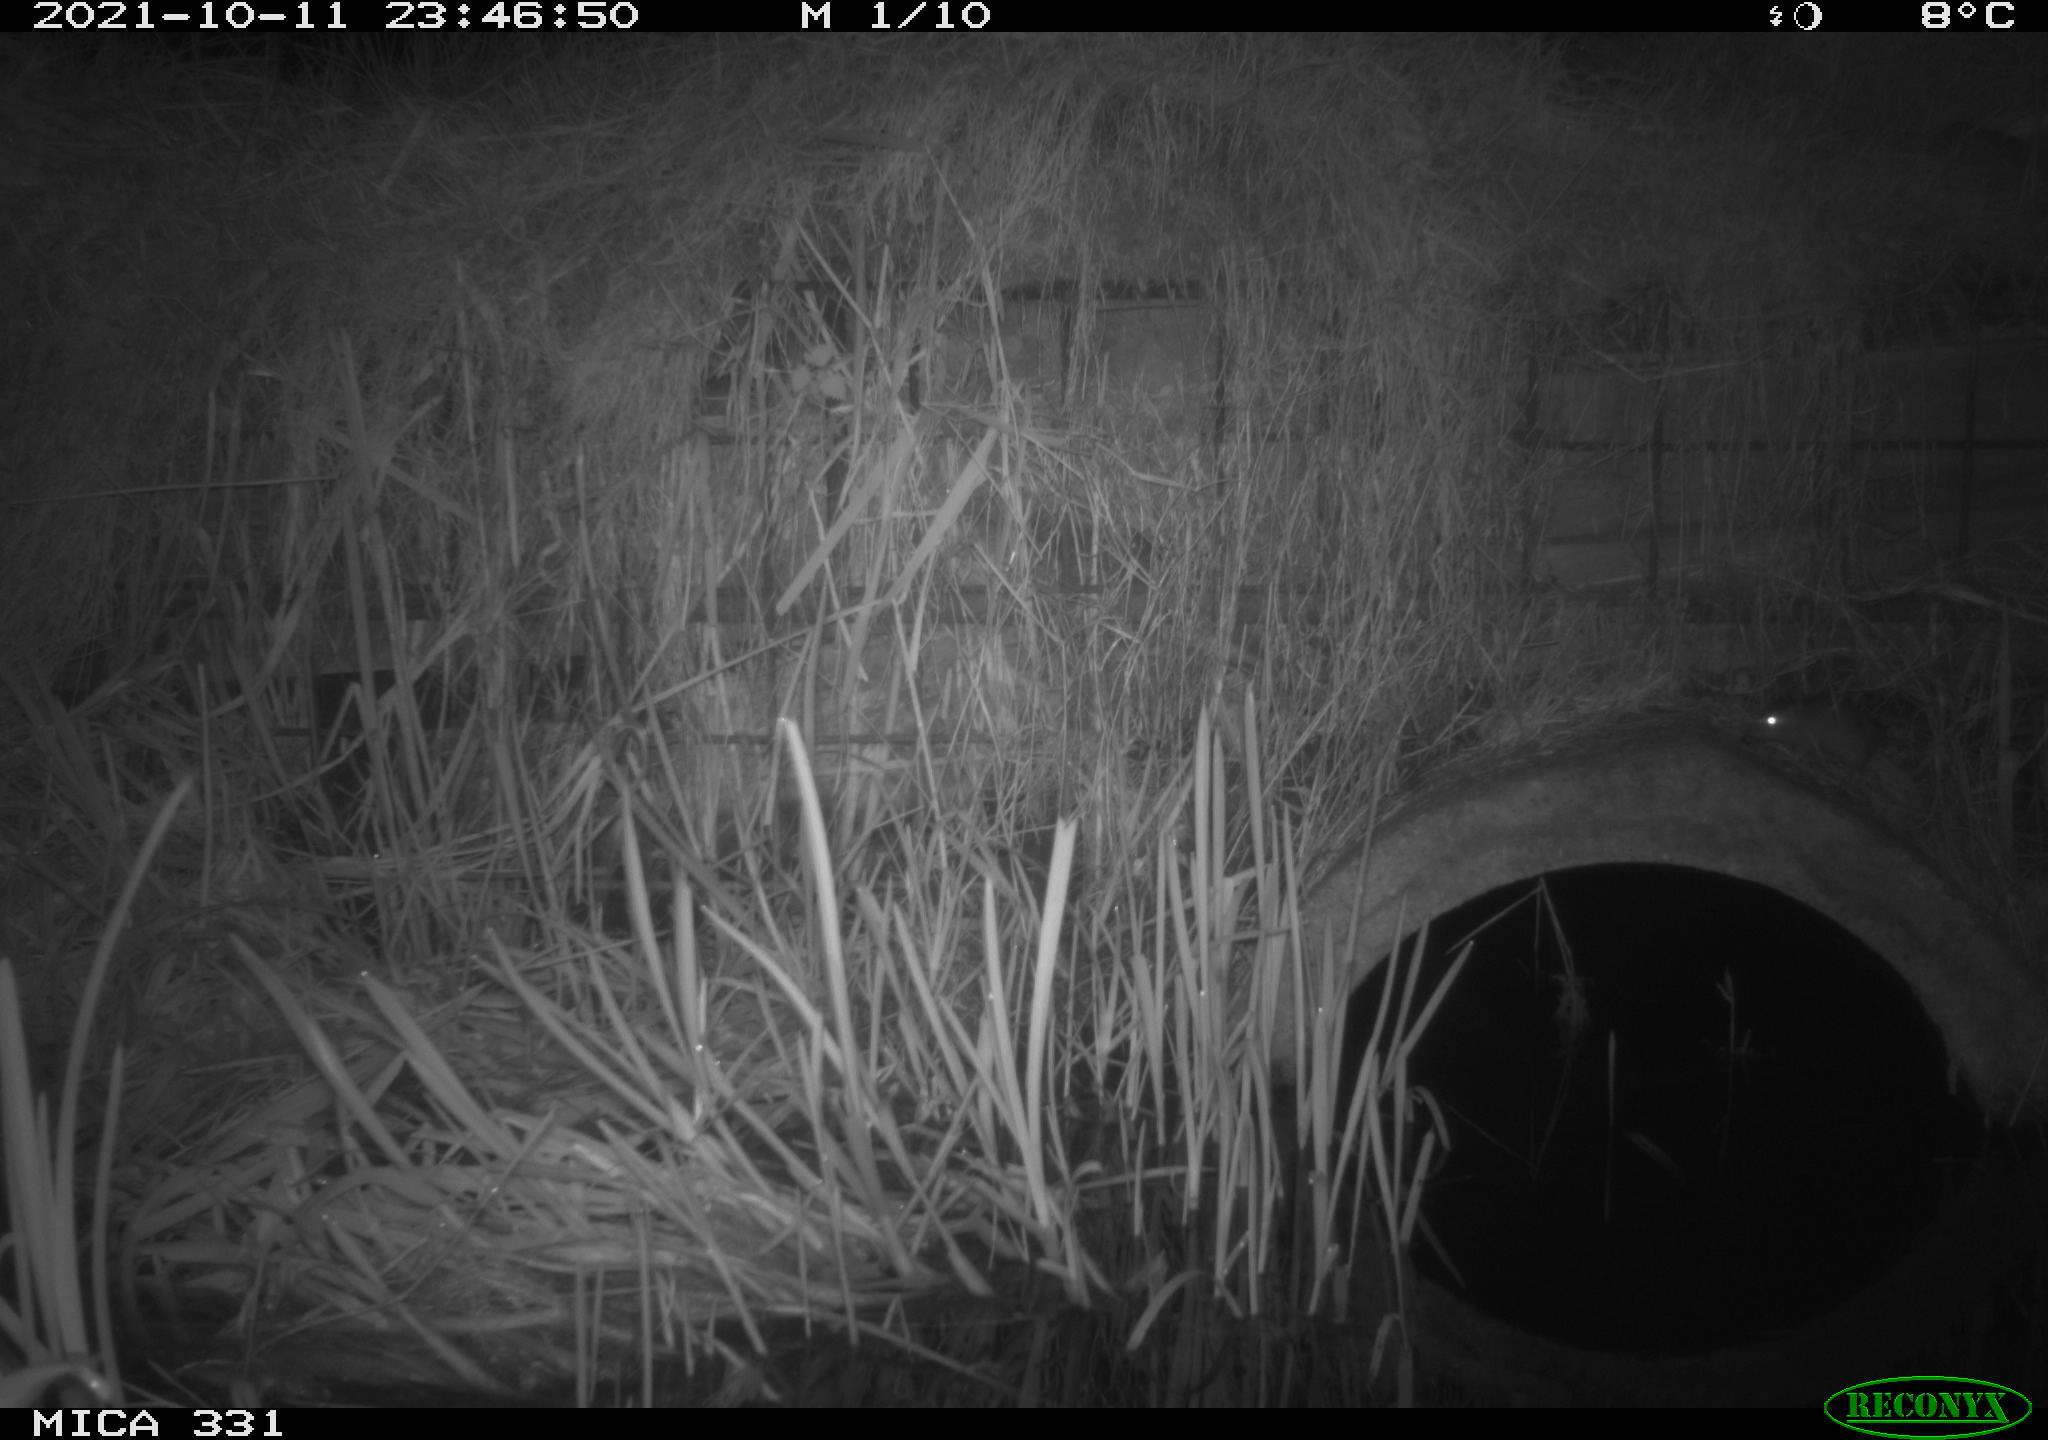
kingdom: Animalia
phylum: Chordata
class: Mammalia
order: Rodentia
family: Muridae
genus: Rattus
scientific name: Rattus norvegicus
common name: Brown rat
